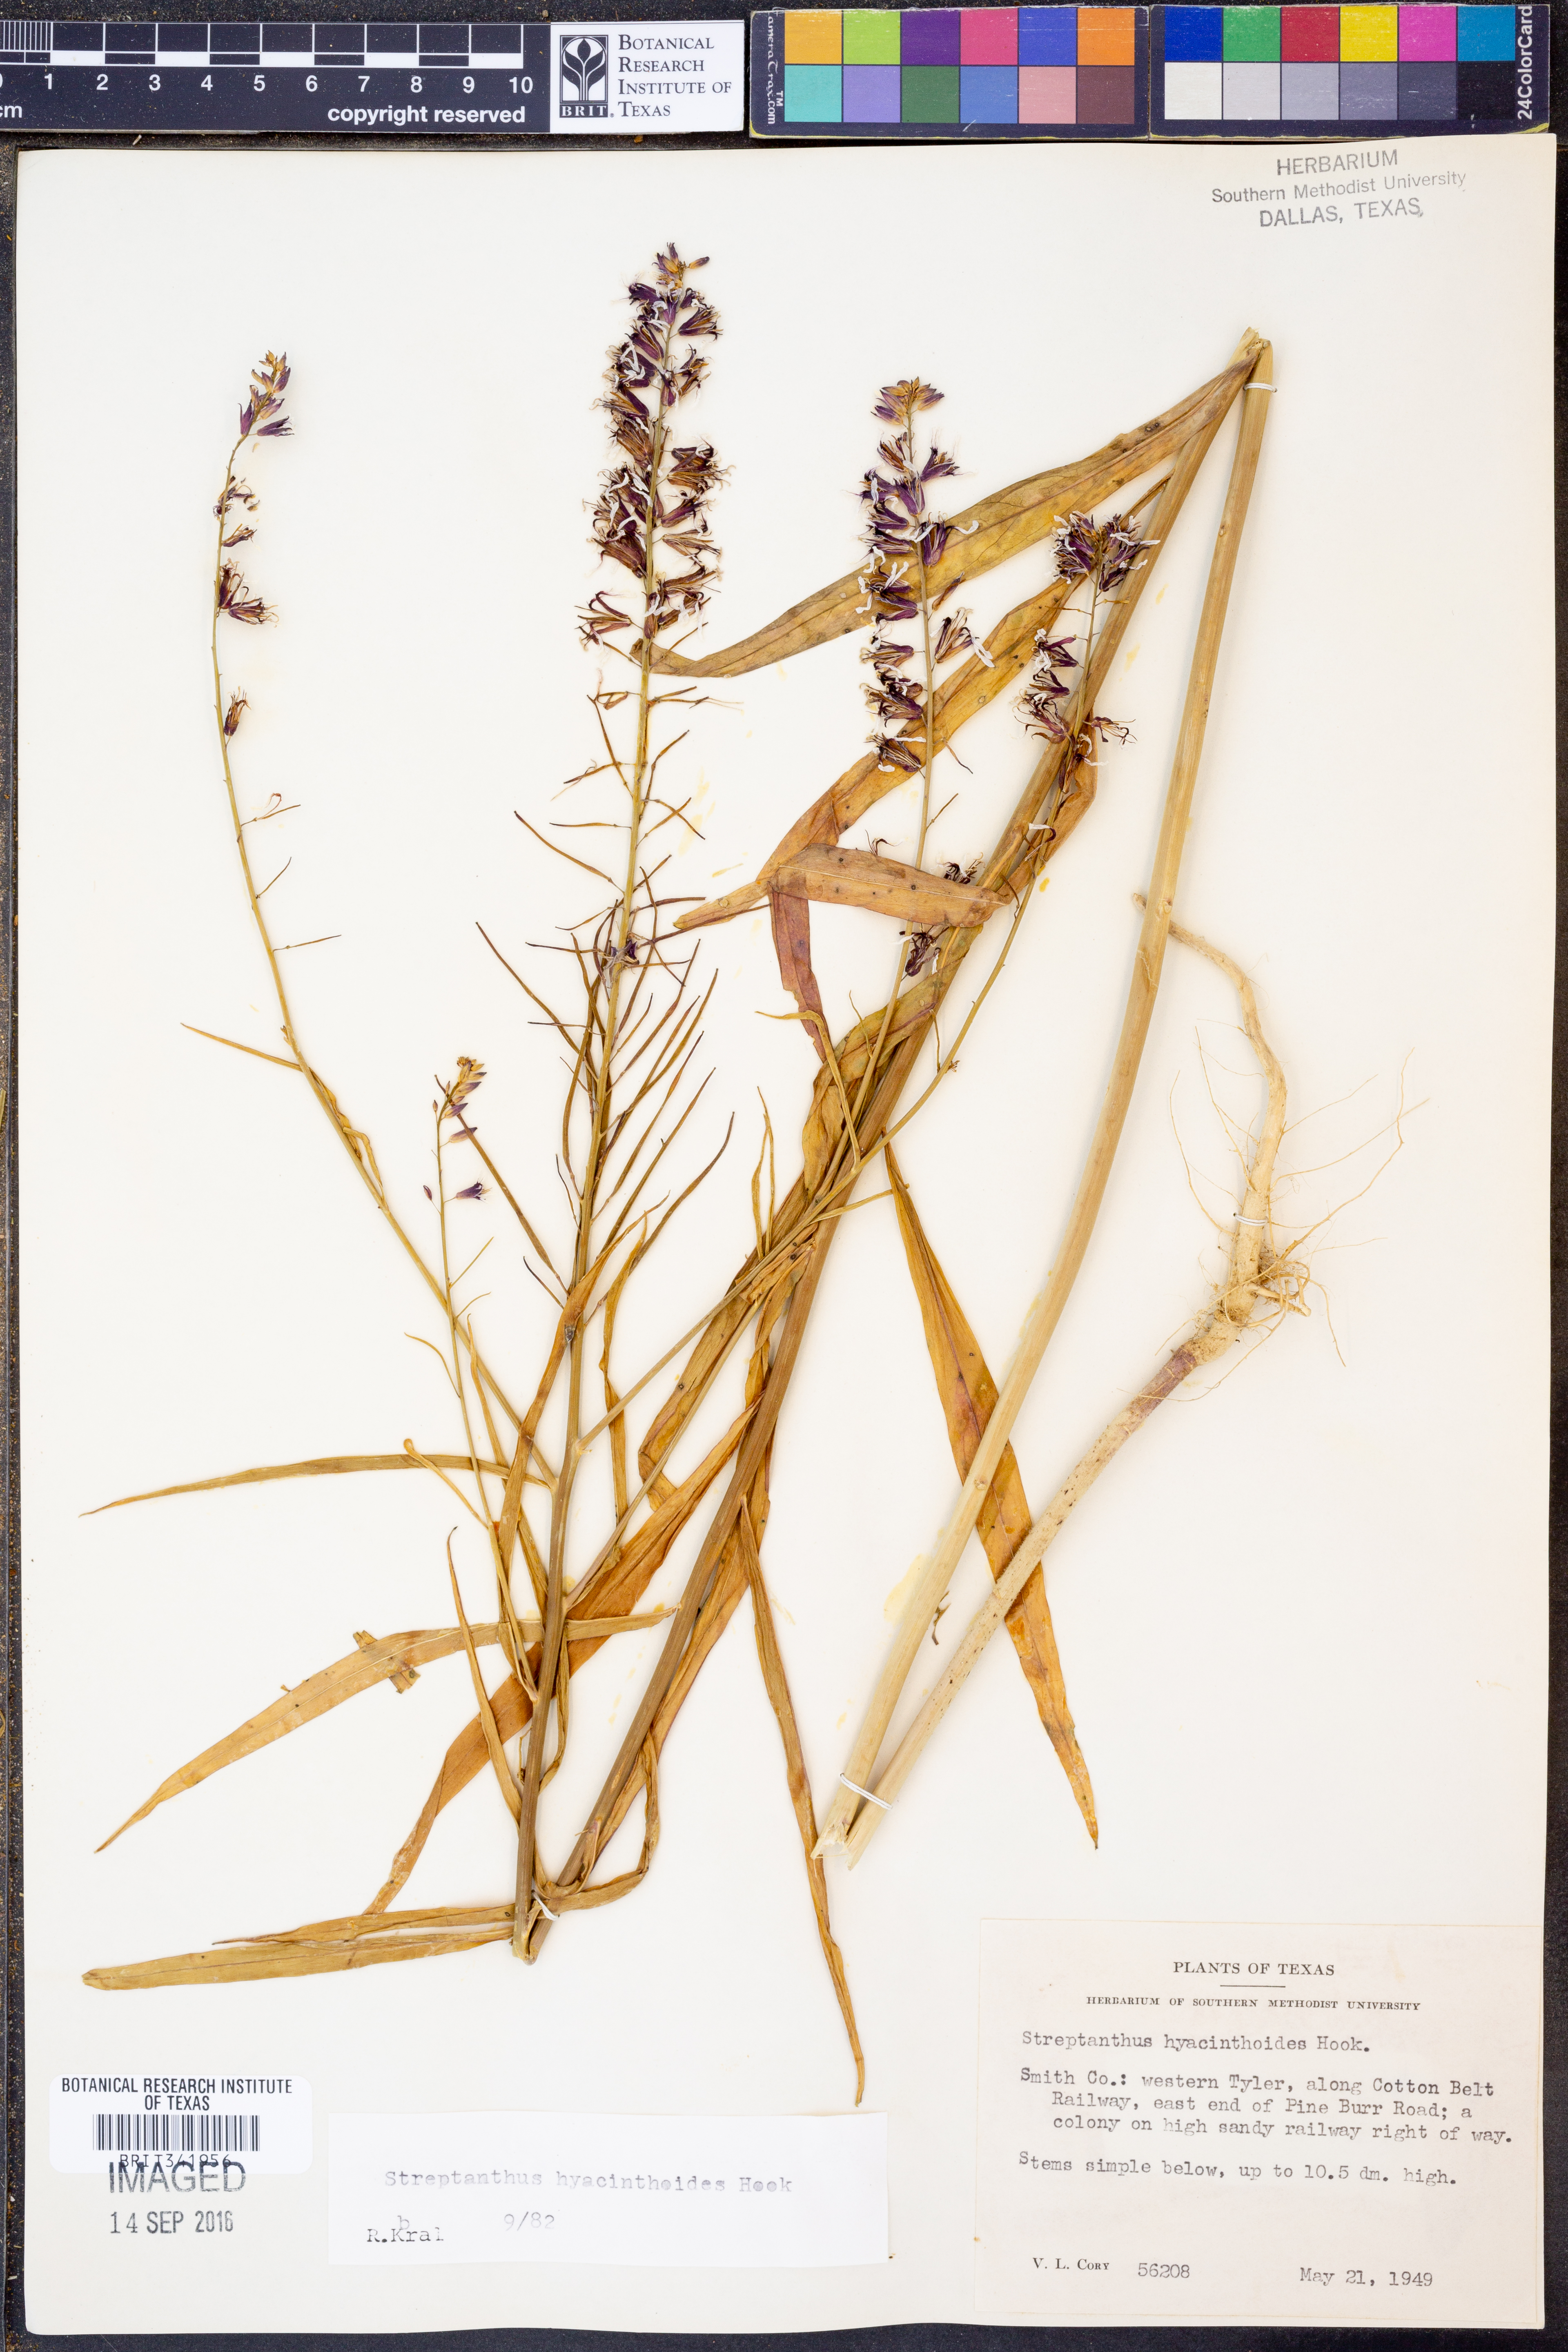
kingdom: Plantae
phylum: Tracheophyta
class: Magnoliopsida
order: Brassicales
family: Brassicaceae
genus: Streptanthus
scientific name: Streptanthus hyacinthoides
